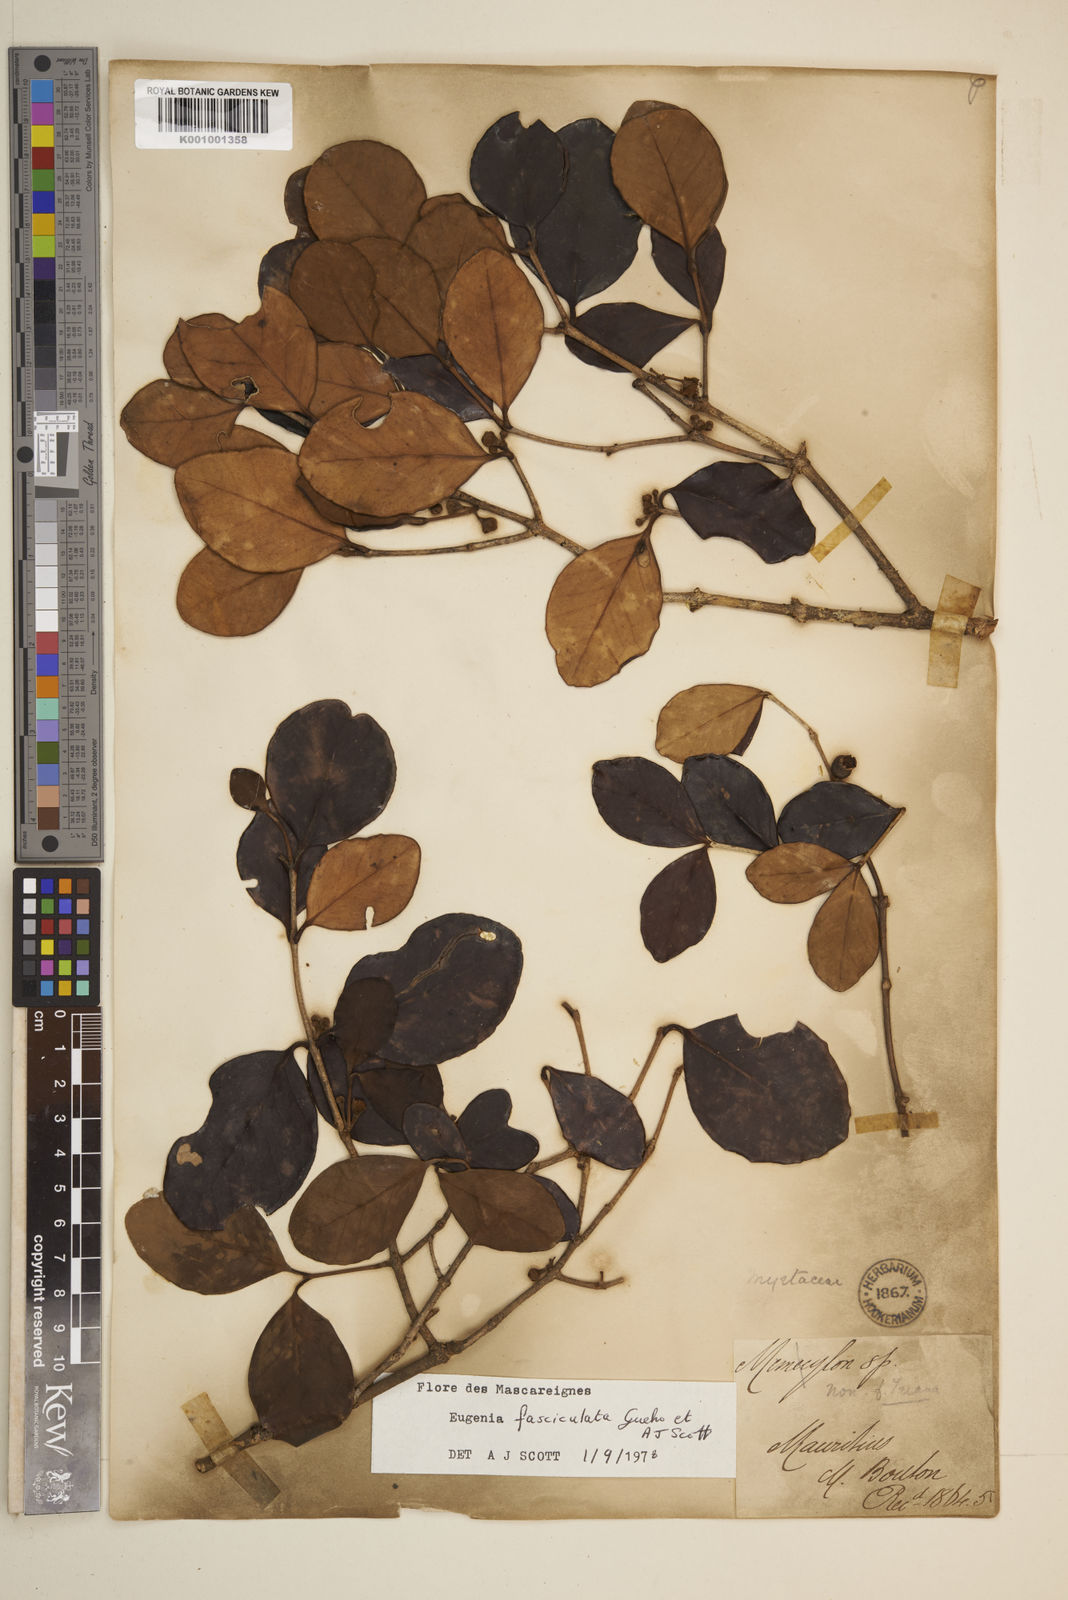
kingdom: Plantae
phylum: Tracheophyta
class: Magnoliopsida
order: Myrtales
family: Myrtaceae
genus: Eugenia
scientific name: Eugenia roxburghii
